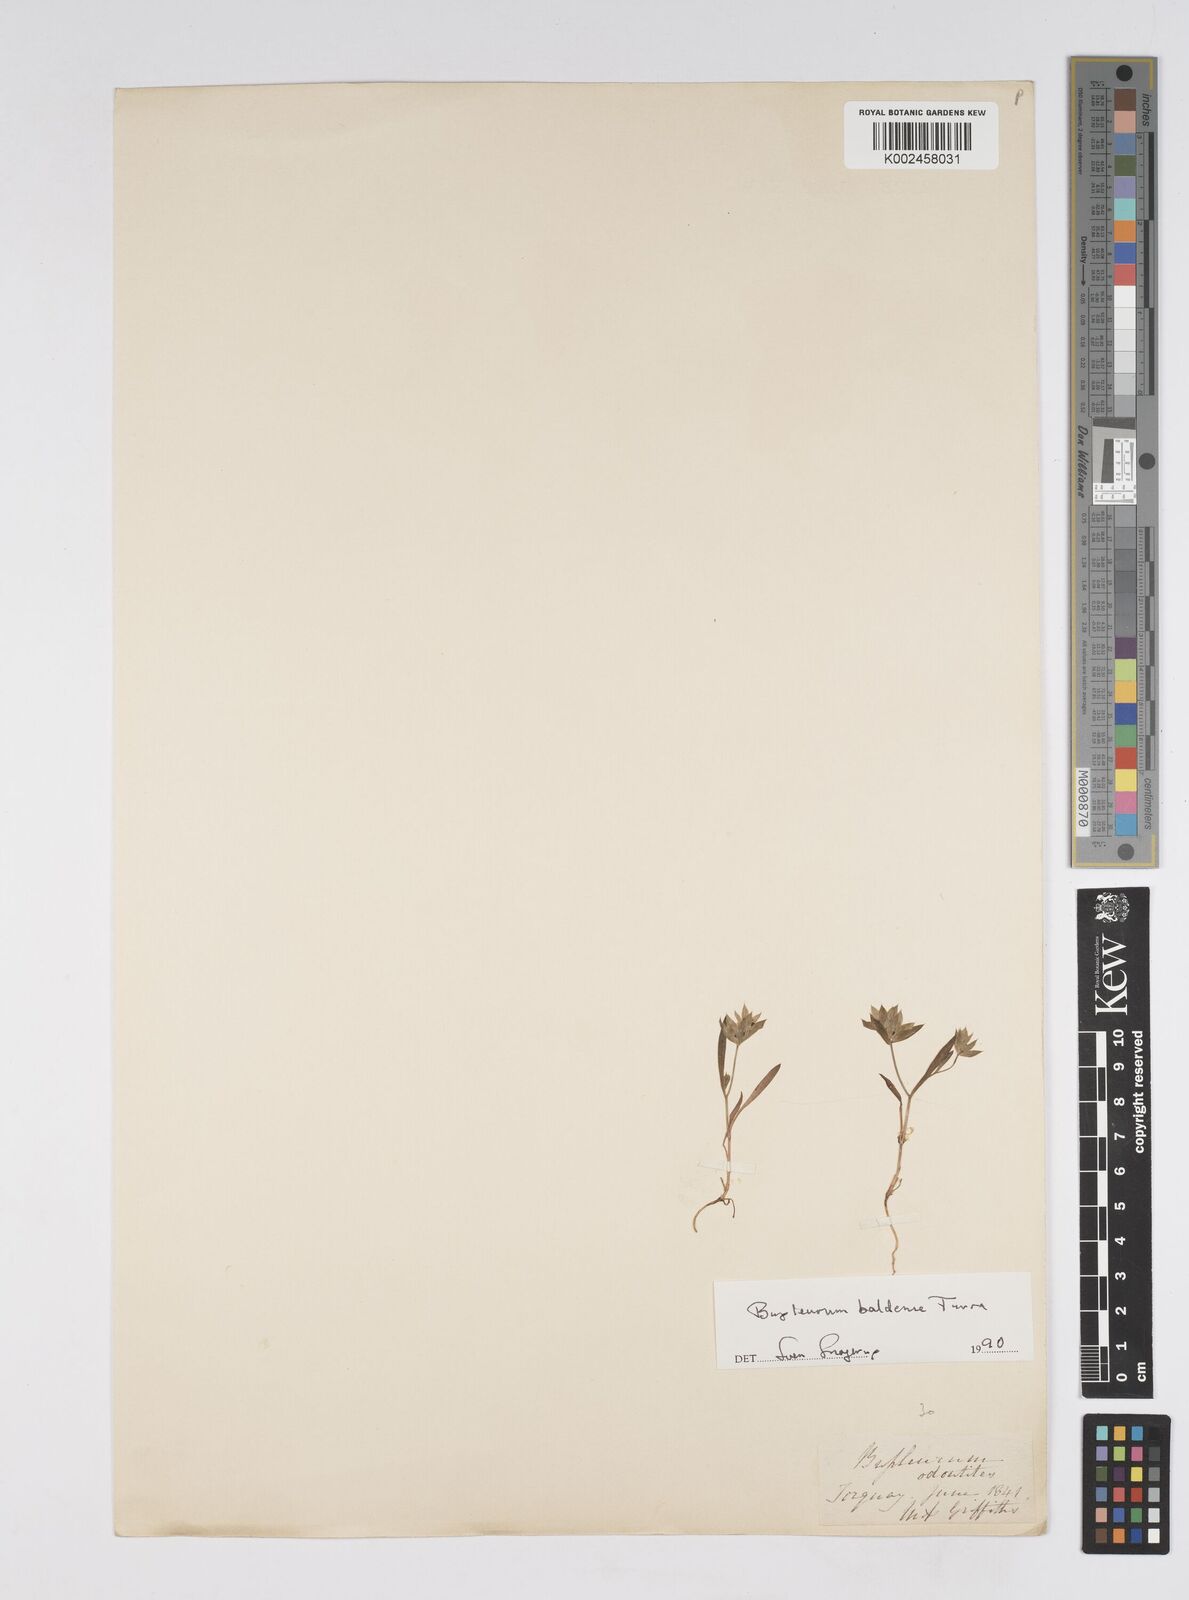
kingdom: Plantae
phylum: Tracheophyta
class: Magnoliopsida
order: Apiales
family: Apiaceae
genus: Bupleurum
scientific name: Bupleurum baldense
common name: Small hare's-ear
